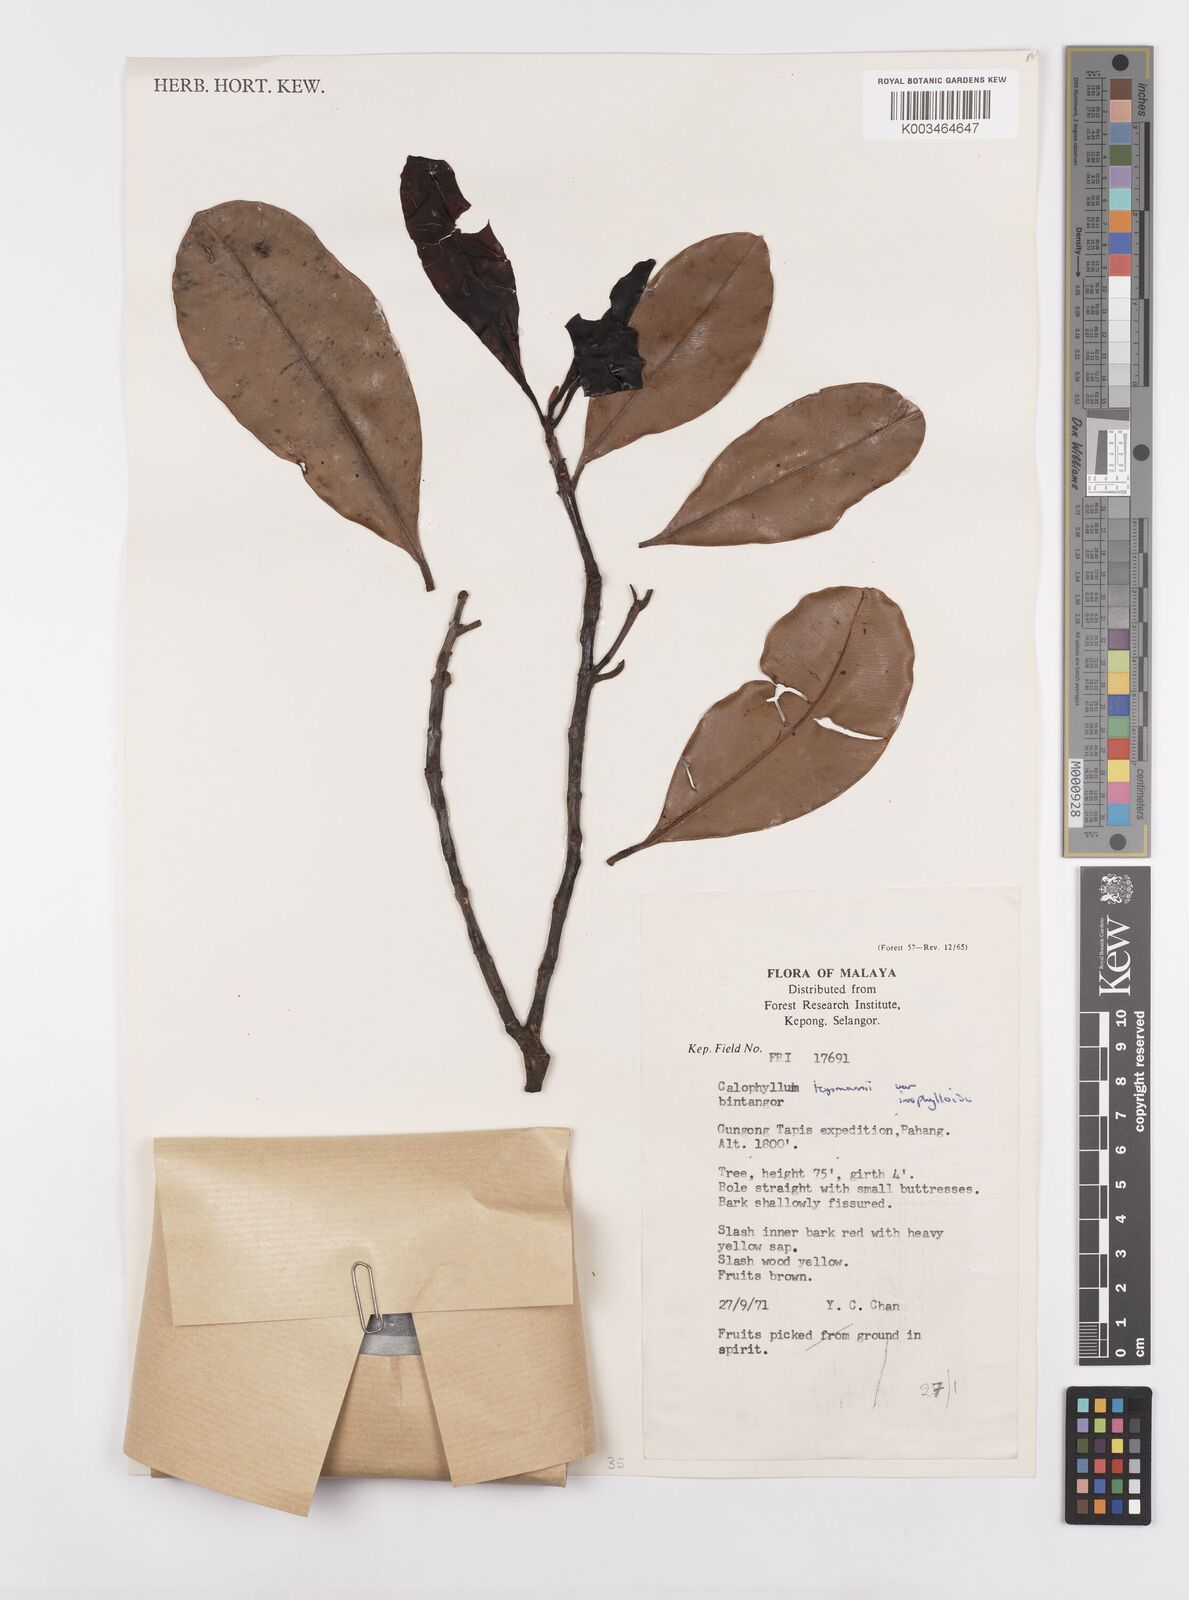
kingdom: Plantae
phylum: Tracheophyta
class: Magnoliopsida
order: Malpighiales
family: Calophyllaceae
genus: Calophyllum
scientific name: Calophyllum teysmannii
